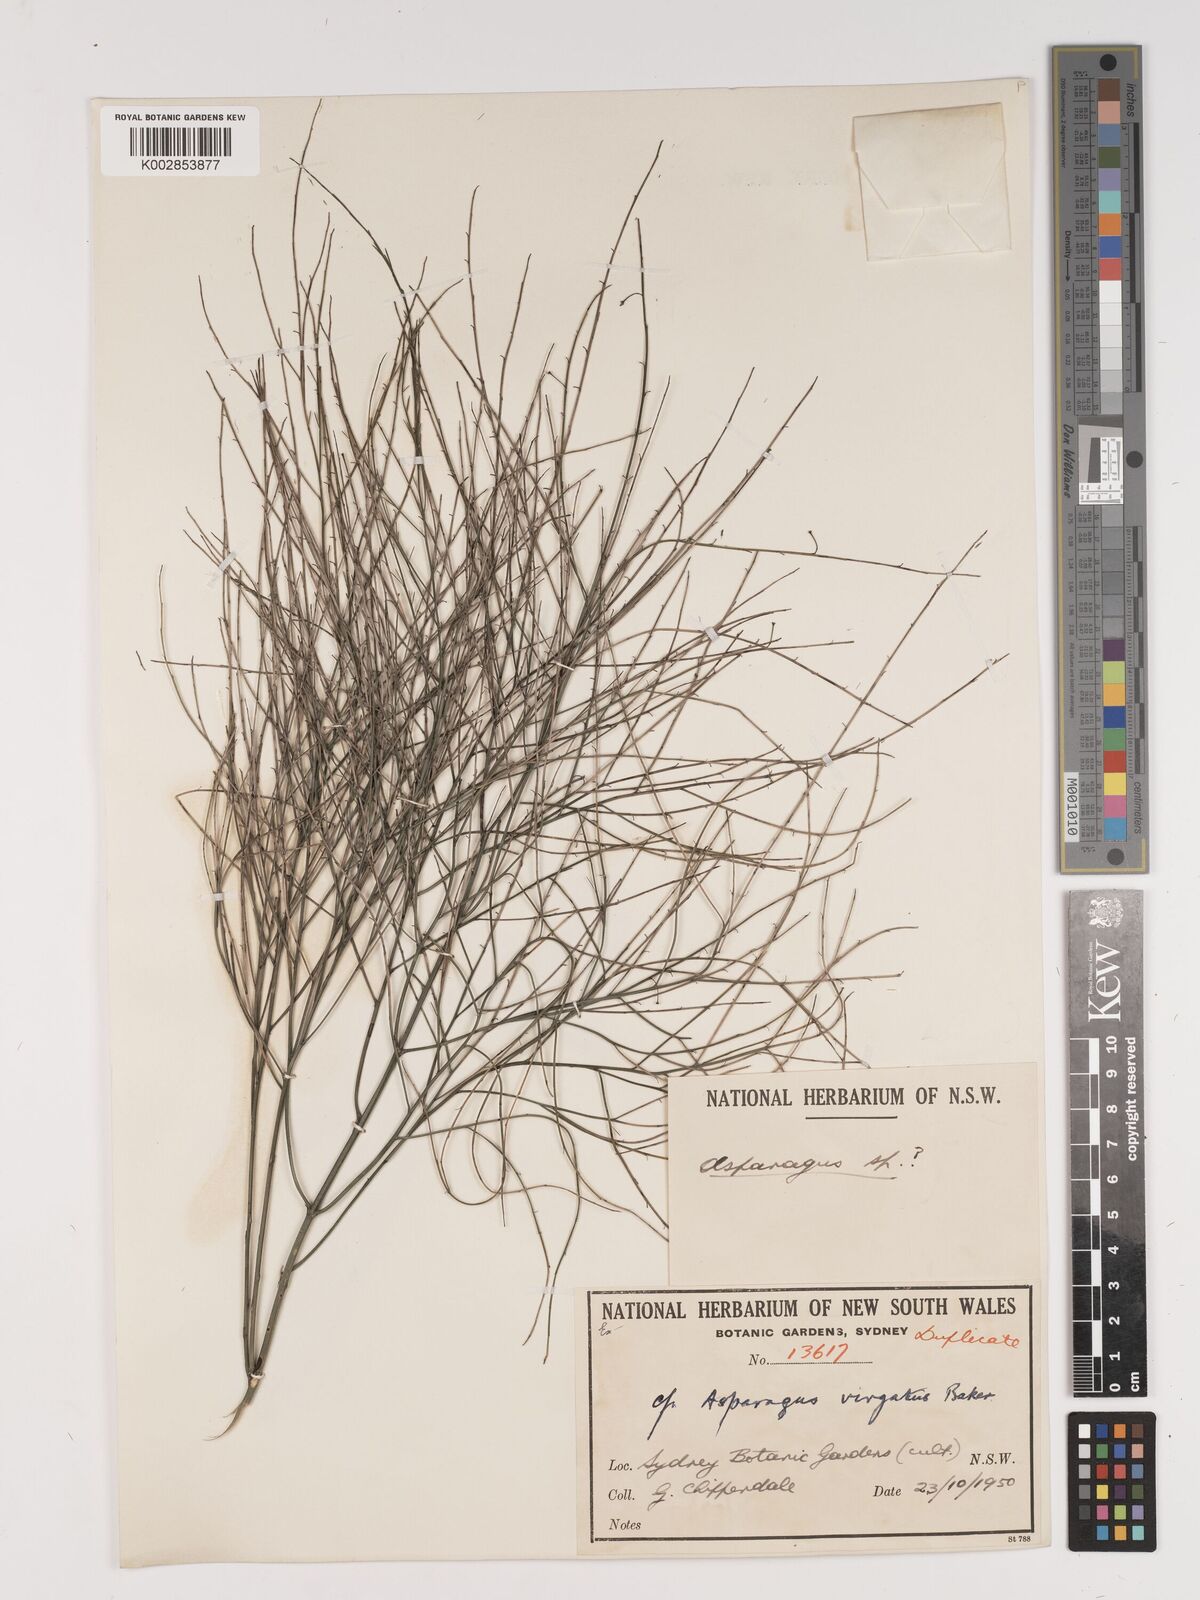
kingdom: Plantae
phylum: Tracheophyta
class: Liliopsida
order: Asparagales
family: Asparagaceae
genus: Asparagus
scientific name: Asparagus virgatus
